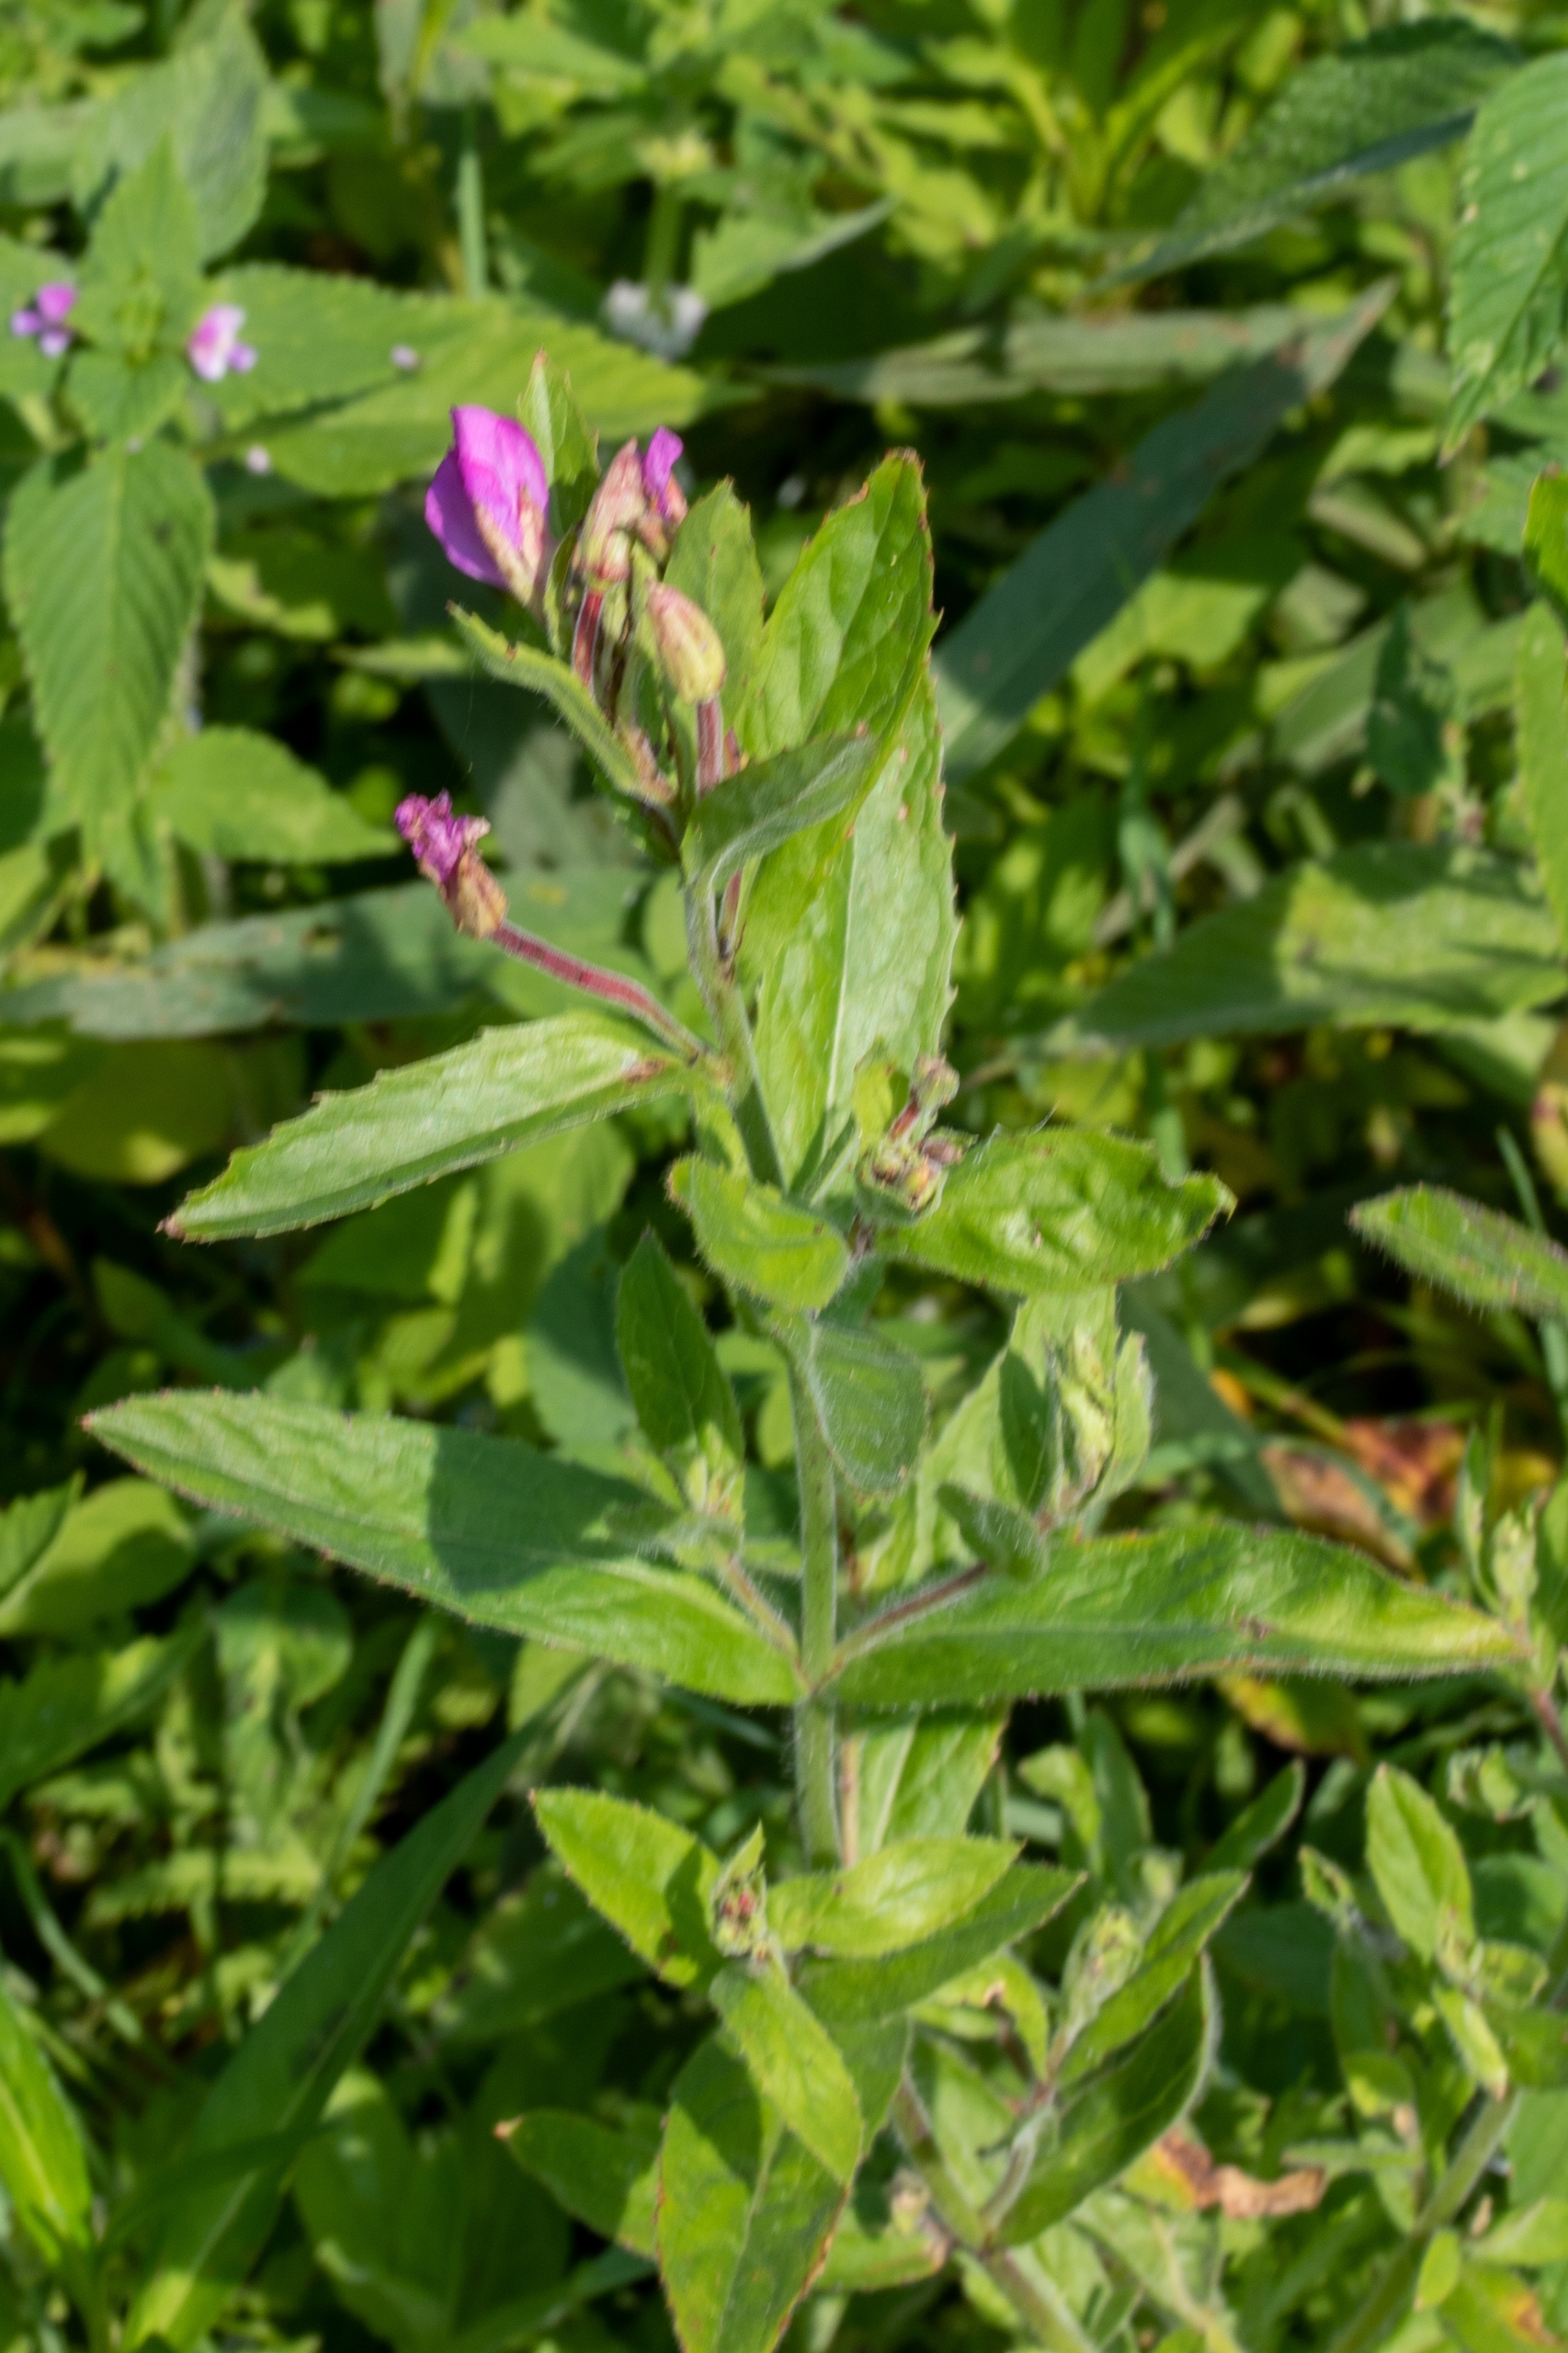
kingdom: Plantae
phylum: Tracheophyta
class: Magnoliopsida
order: Myrtales
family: Onagraceae
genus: Epilobium
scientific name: Epilobium hirsutum
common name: Lådden dueurt
